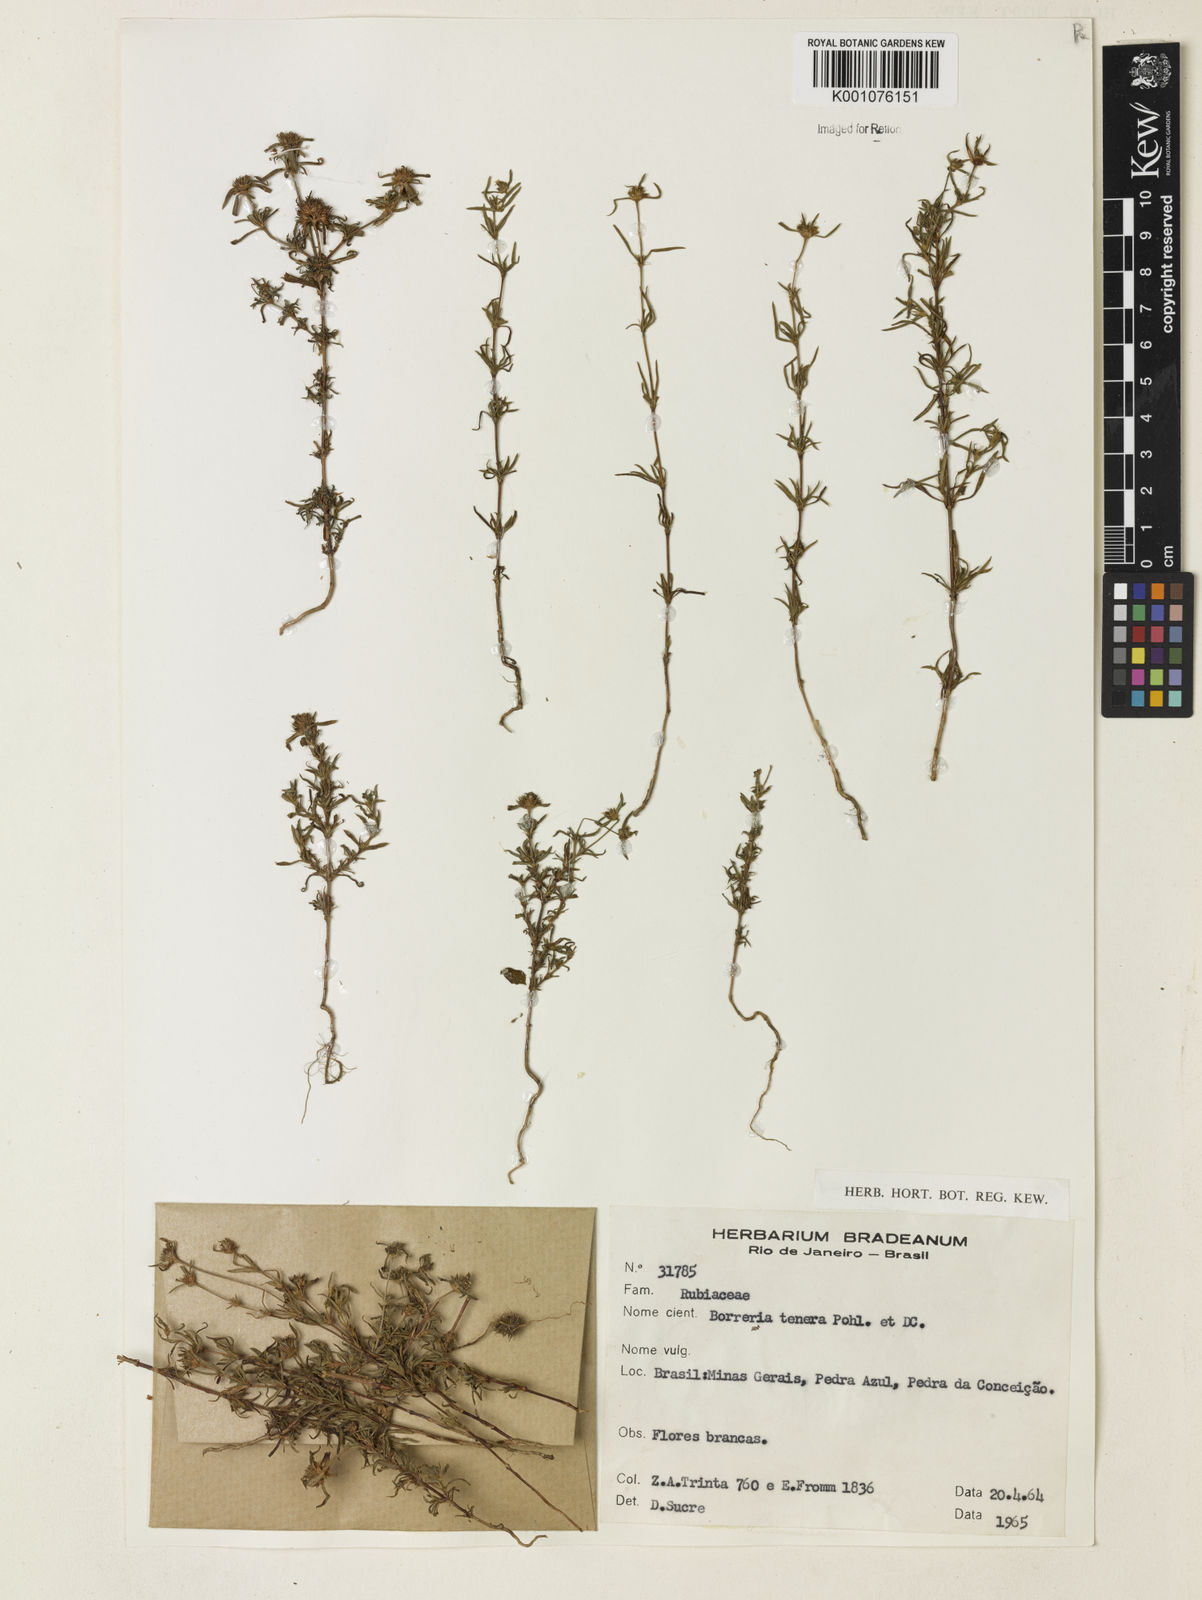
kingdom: Plantae
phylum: Tracheophyta
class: Magnoliopsida
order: Gentianales
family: Rubiaceae
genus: Spermacoce
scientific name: Spermacoce ocymoides
